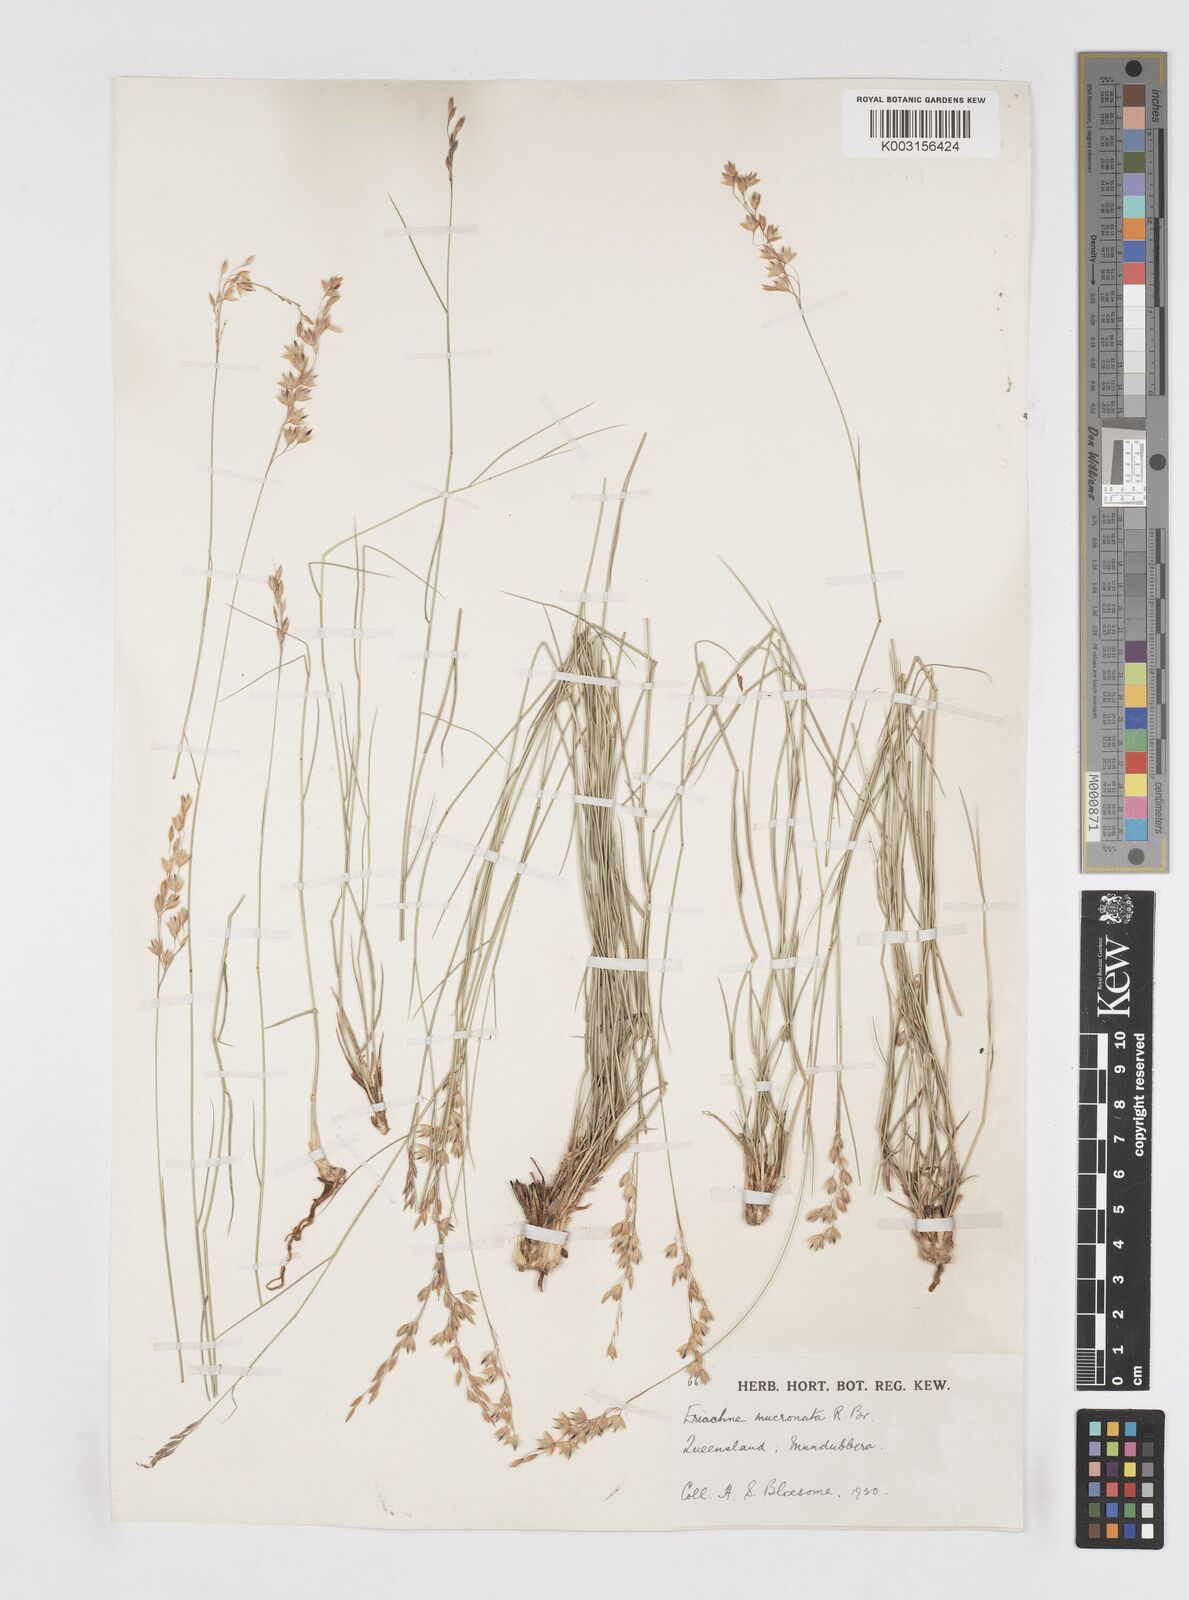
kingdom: Plantae
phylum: Tracheophyta
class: Liliopsida
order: Poales
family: Poaceae
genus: Eriachne
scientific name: Eriachne mucronata
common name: Mountain wanderrie grass
